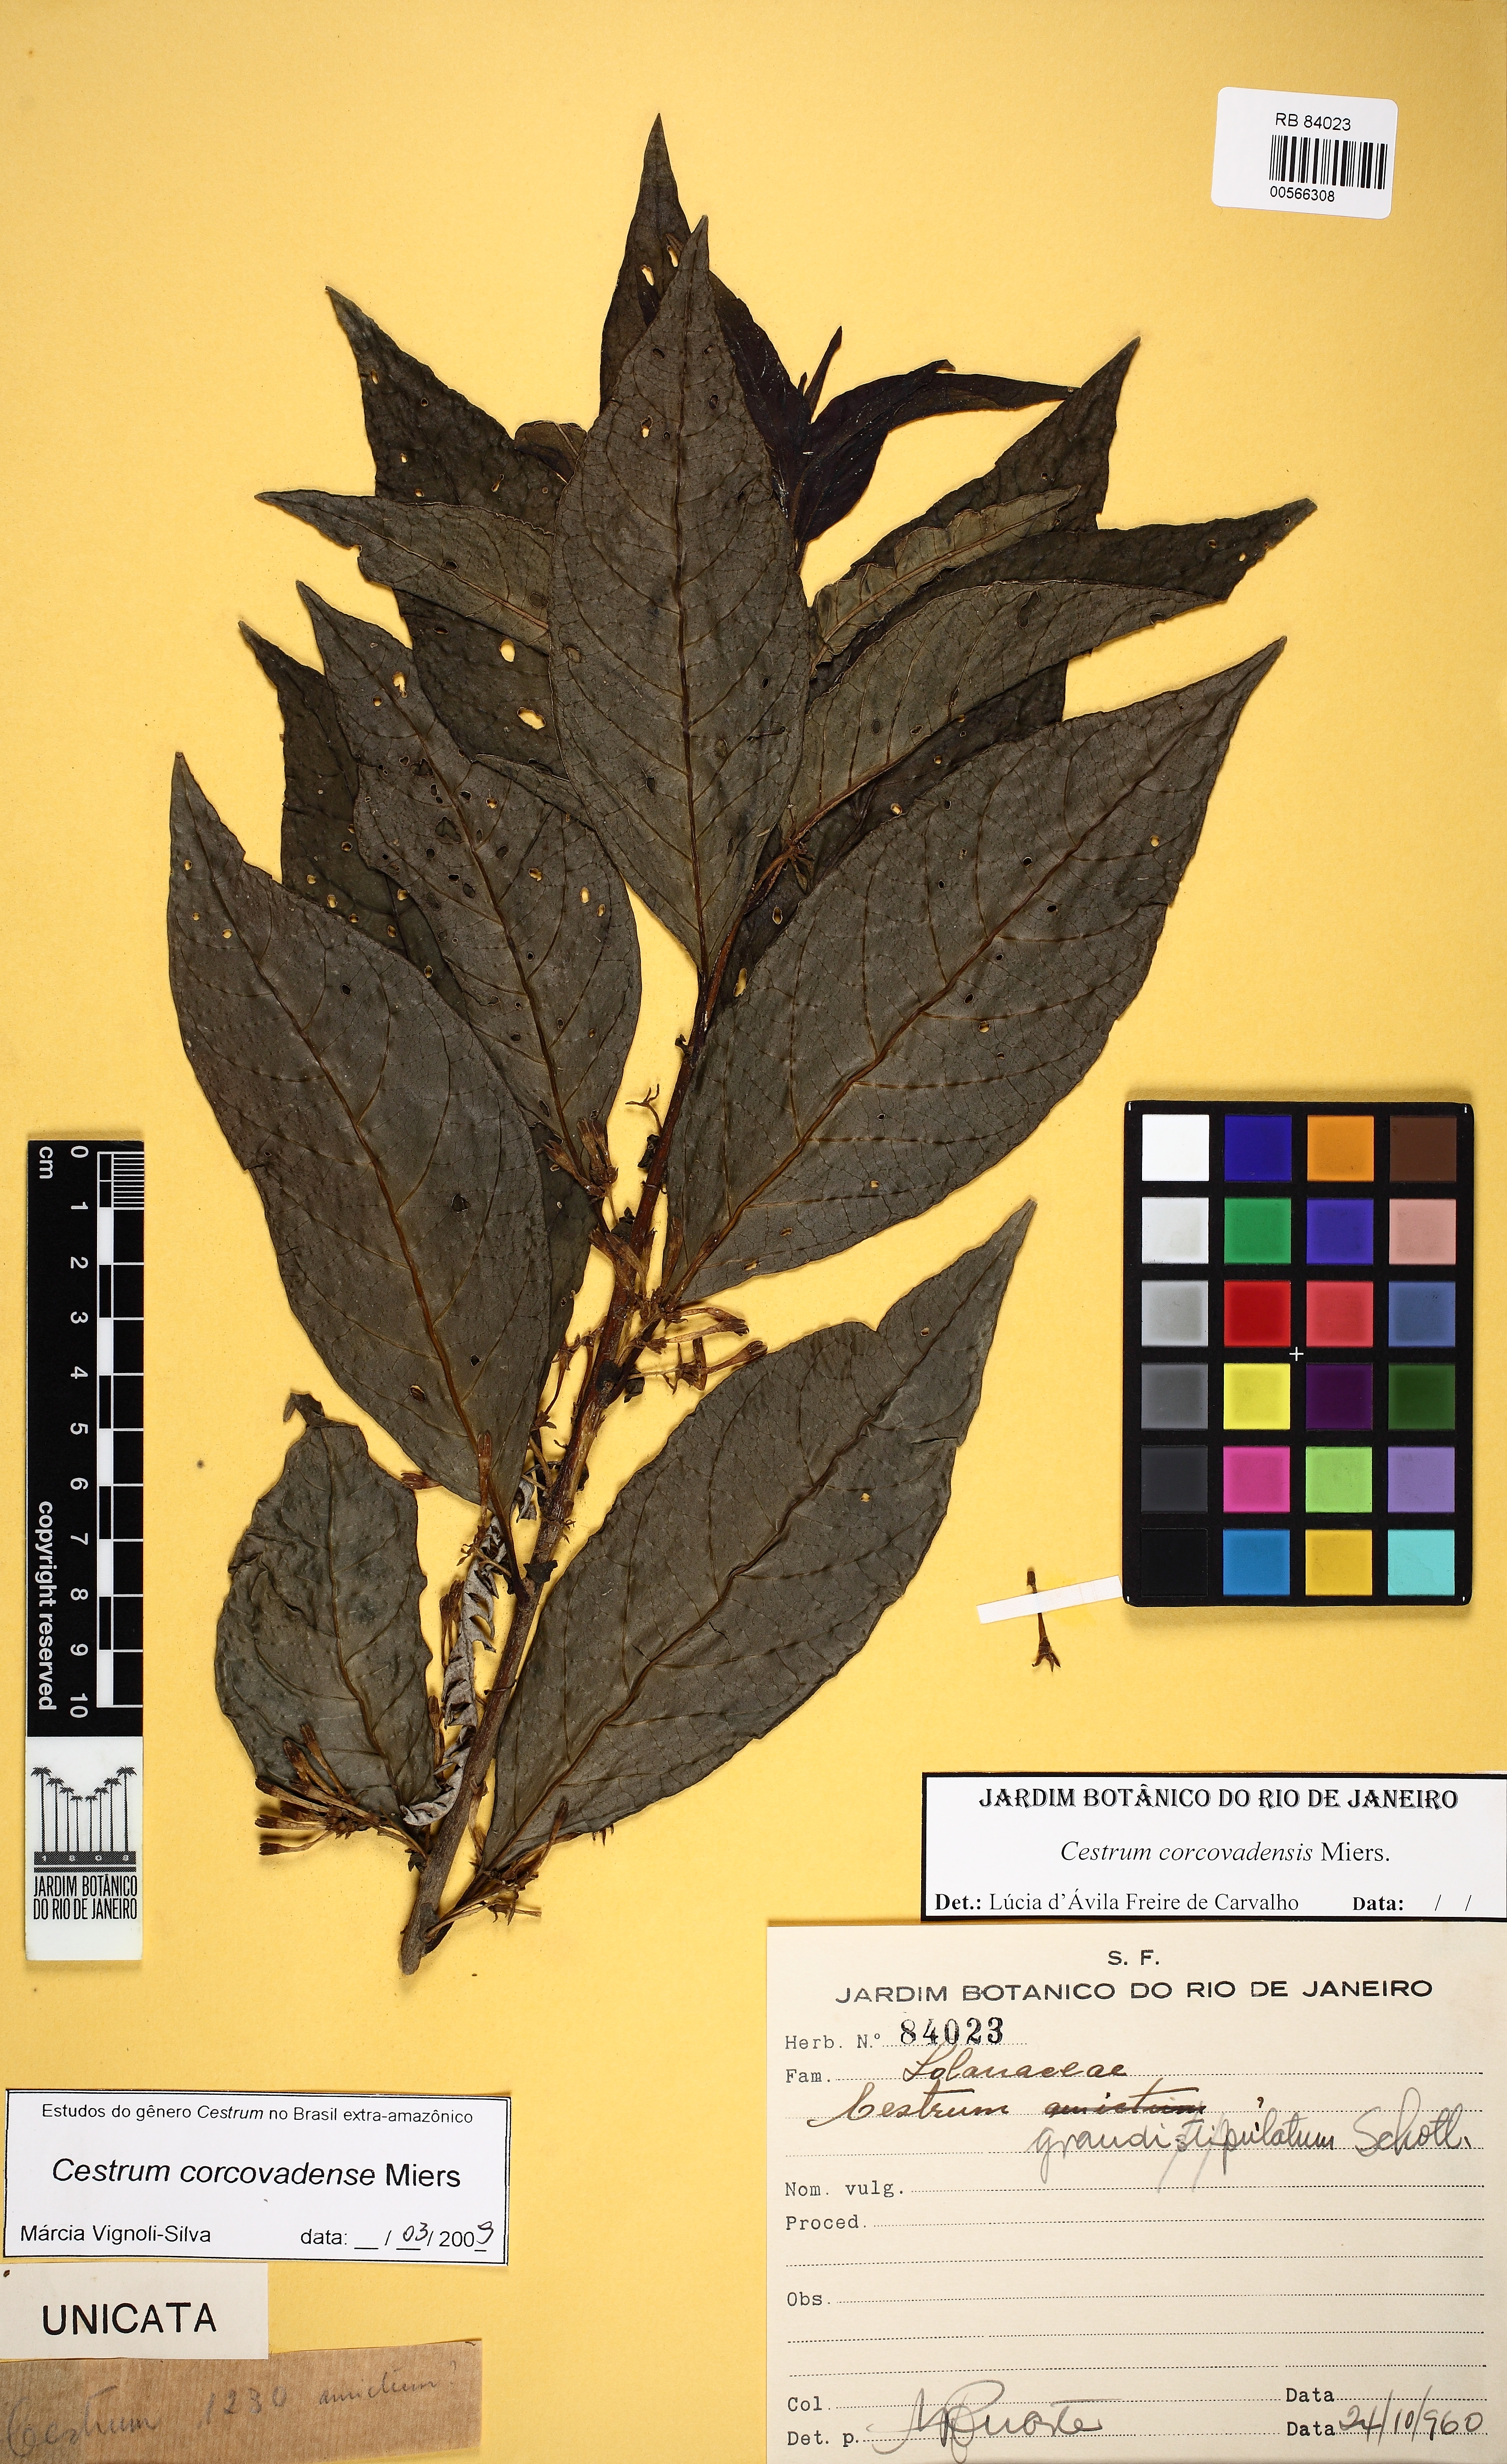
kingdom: Plantae
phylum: Tracheophyta
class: Magnoliopsida
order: Solanales
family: Solanaceae
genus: Cestrum
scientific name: Cestrum corcovadense
